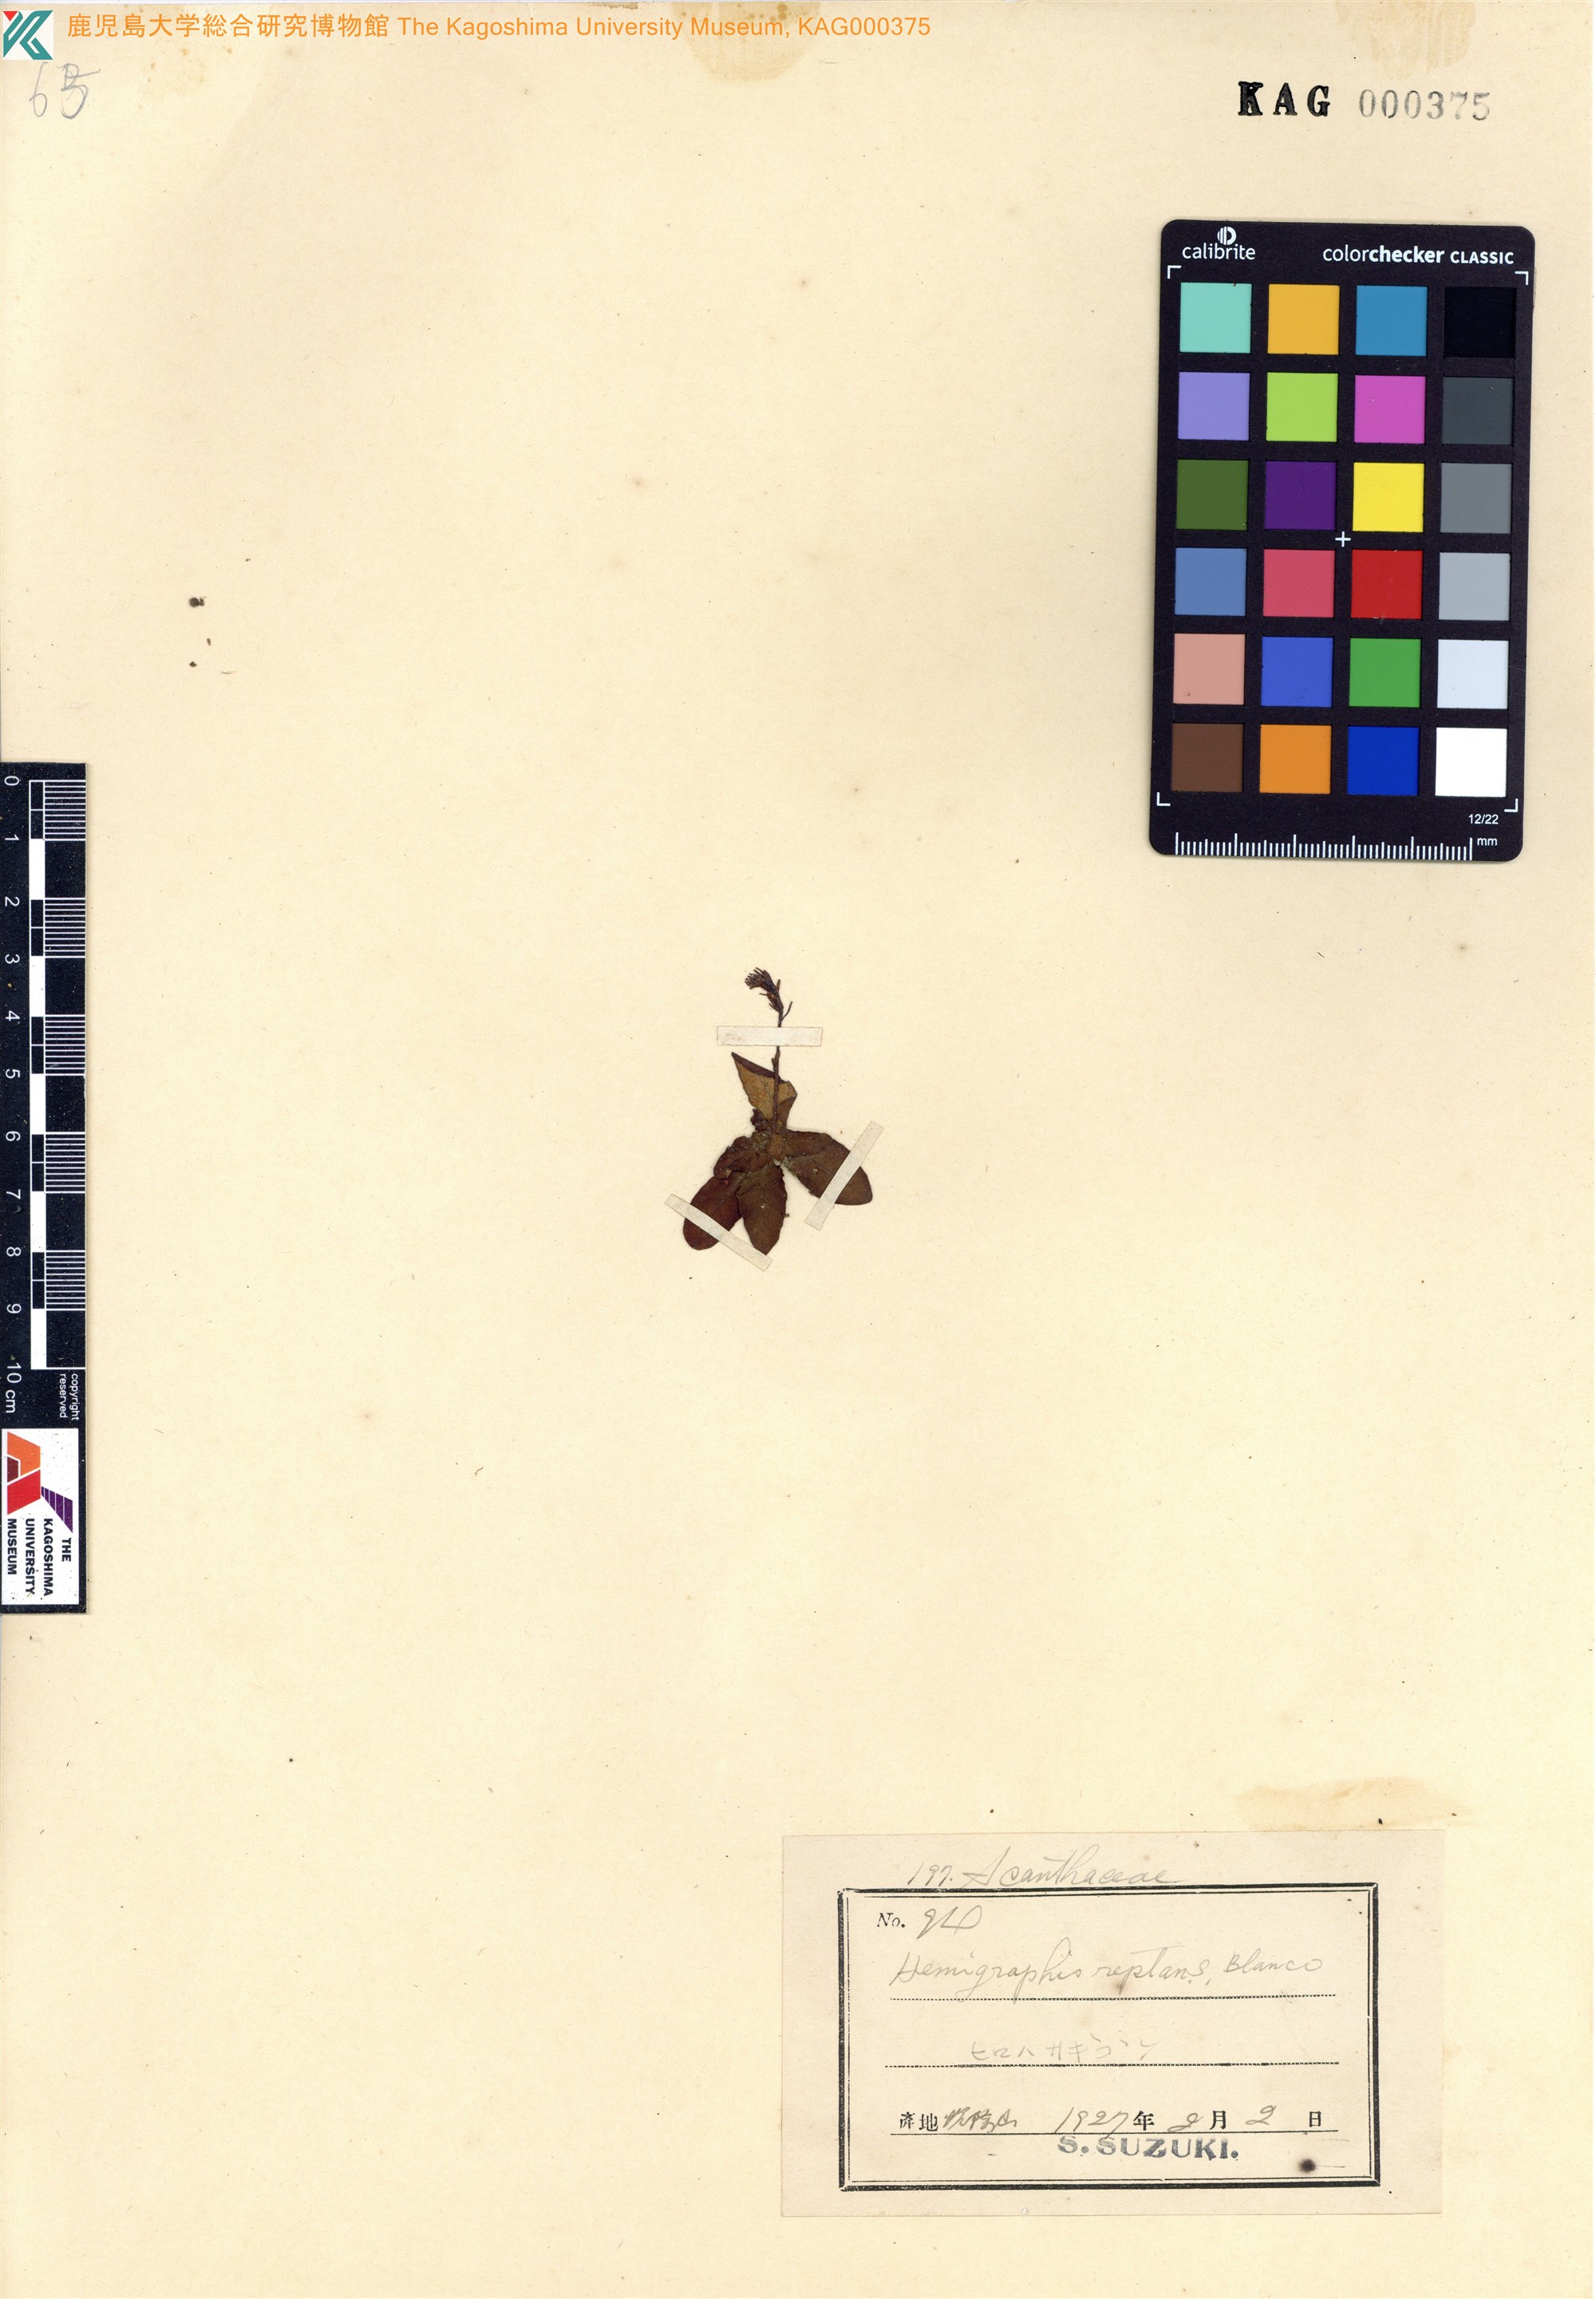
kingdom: Plantae
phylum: Tracheophyta
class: Magnoliopsida
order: Lamiales
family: Acanthaceae
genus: Hemigraphis
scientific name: Hemigraphis reptans
